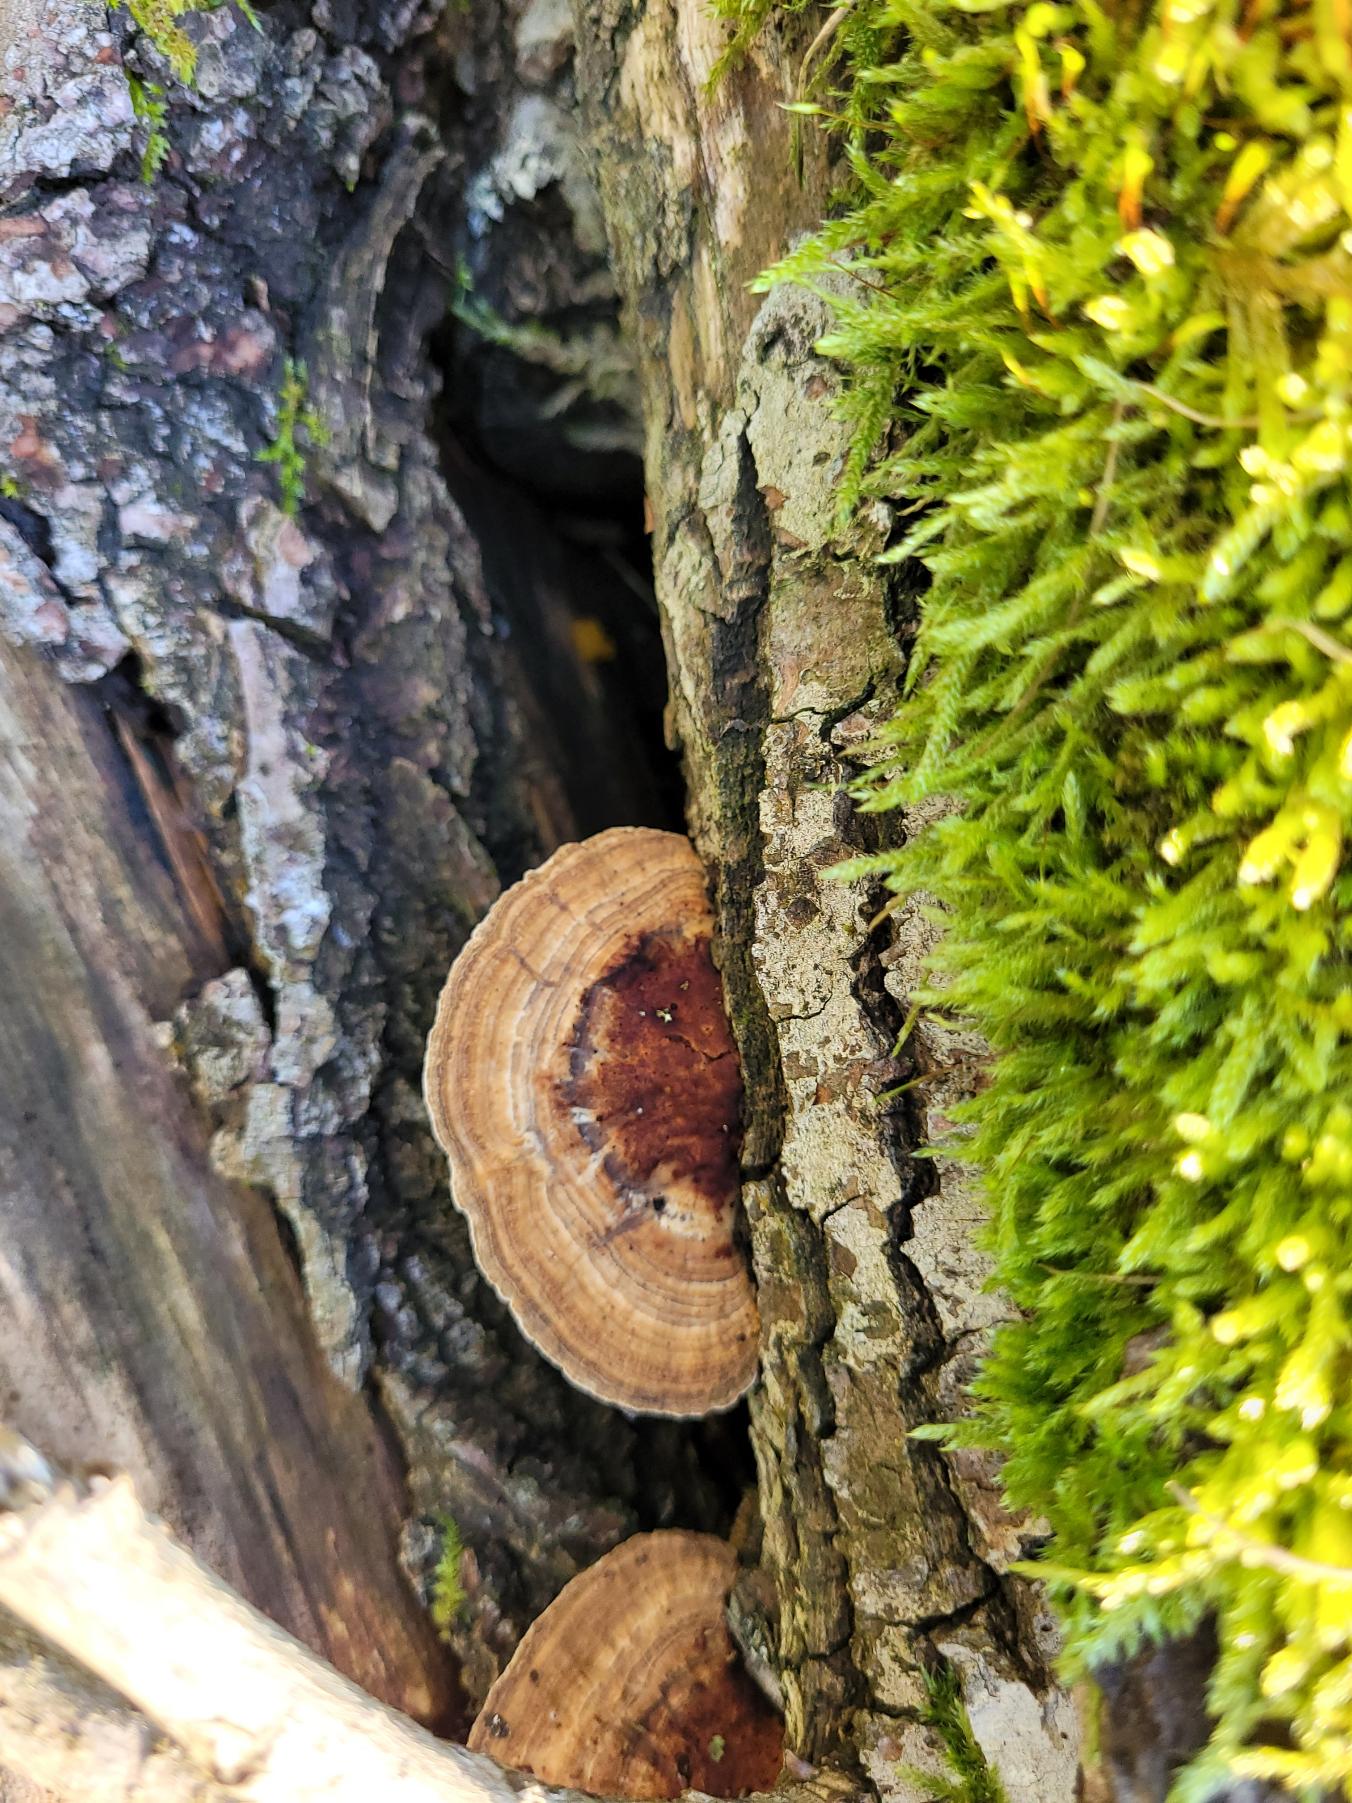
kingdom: Fungi
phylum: Basidiomycota
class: Agaricomycetes
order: Polyporales
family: Polyporaceae
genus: Daedaleopsis
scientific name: Daedaleopsis confragosa
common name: Rødmende læderporesvamp
